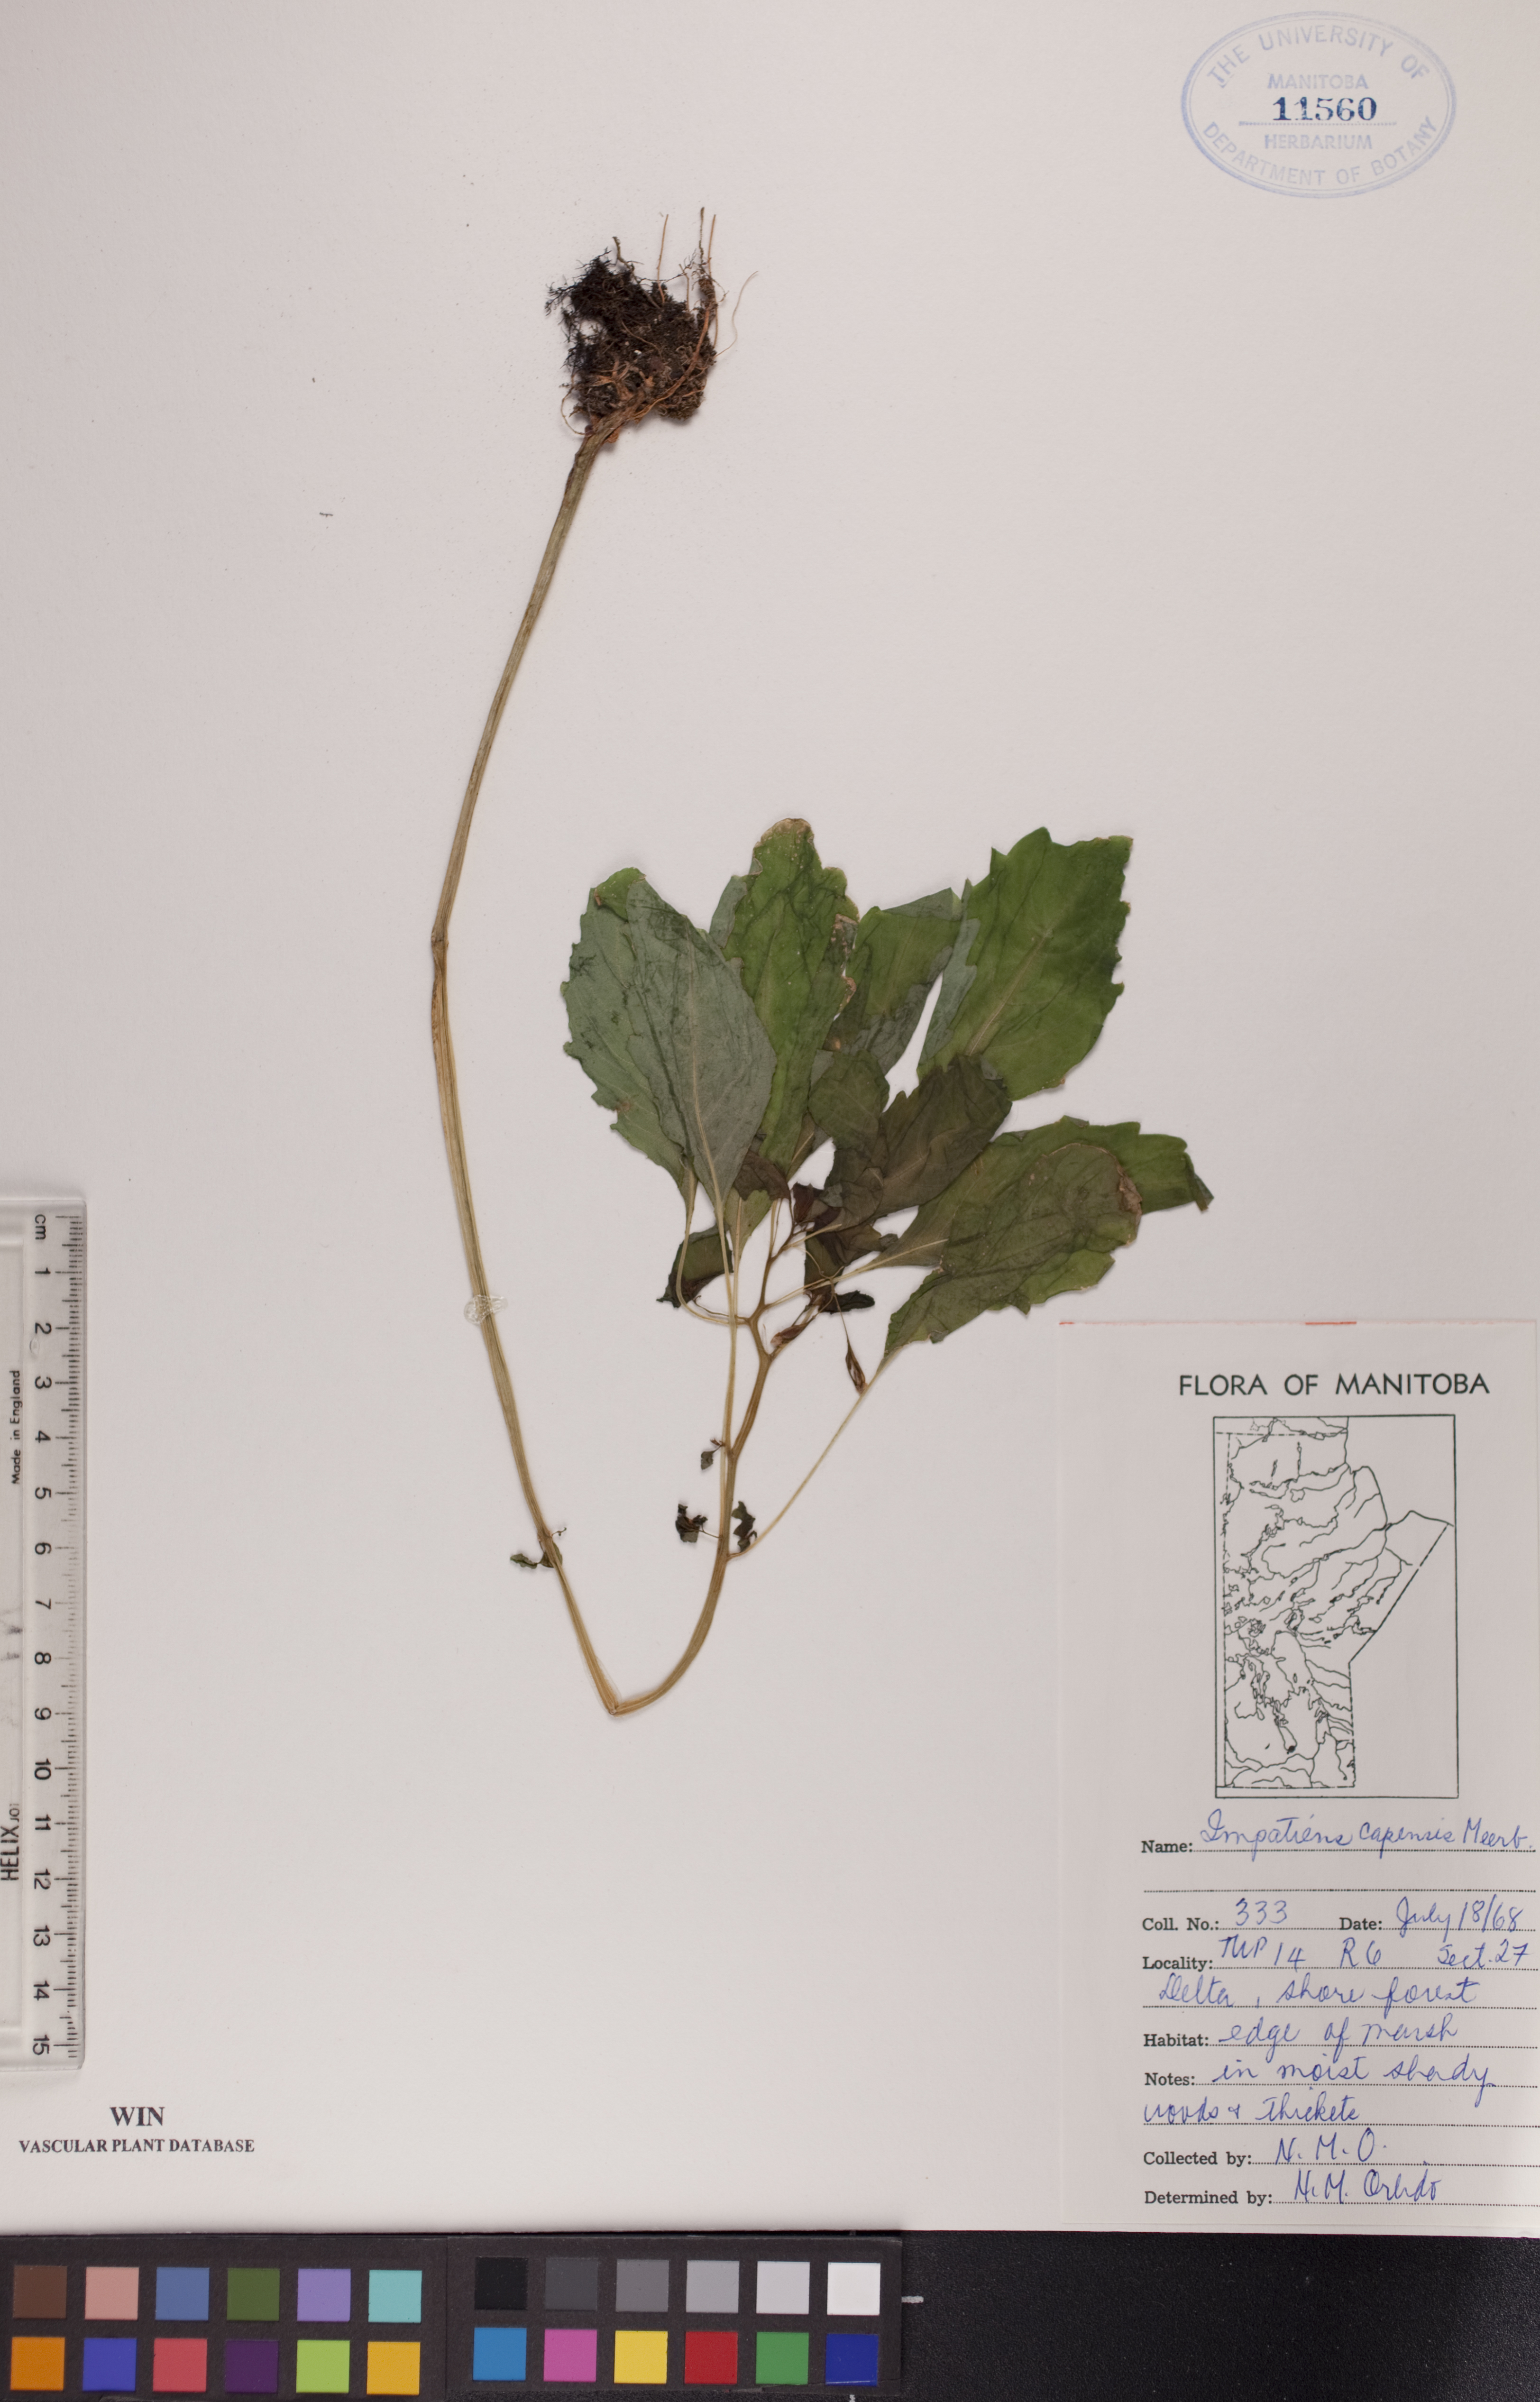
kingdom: Plantae
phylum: Tracheophyta
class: Magnoliopsida
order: Ericales
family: Balsaminaceae
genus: Impatiens
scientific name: Impatiens capensis
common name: Orange balsam
